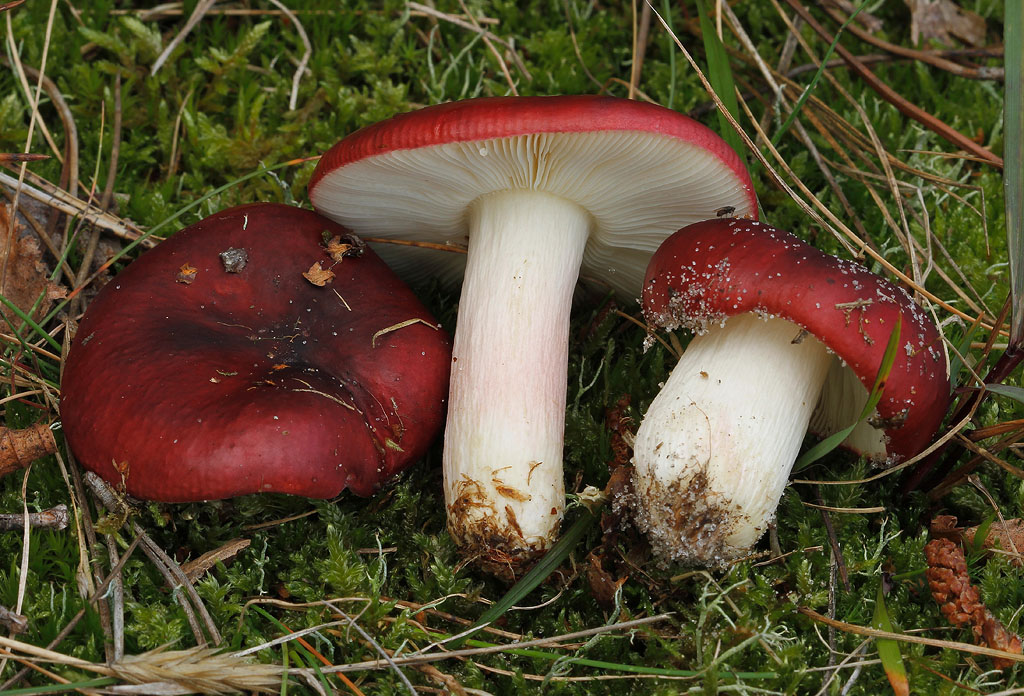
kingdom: Fungi
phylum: Basidiomycota
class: Agaricomycetes
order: Russulales
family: Russulaceae
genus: Russula
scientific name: Russula xerampelina
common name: hummer-skørhat
